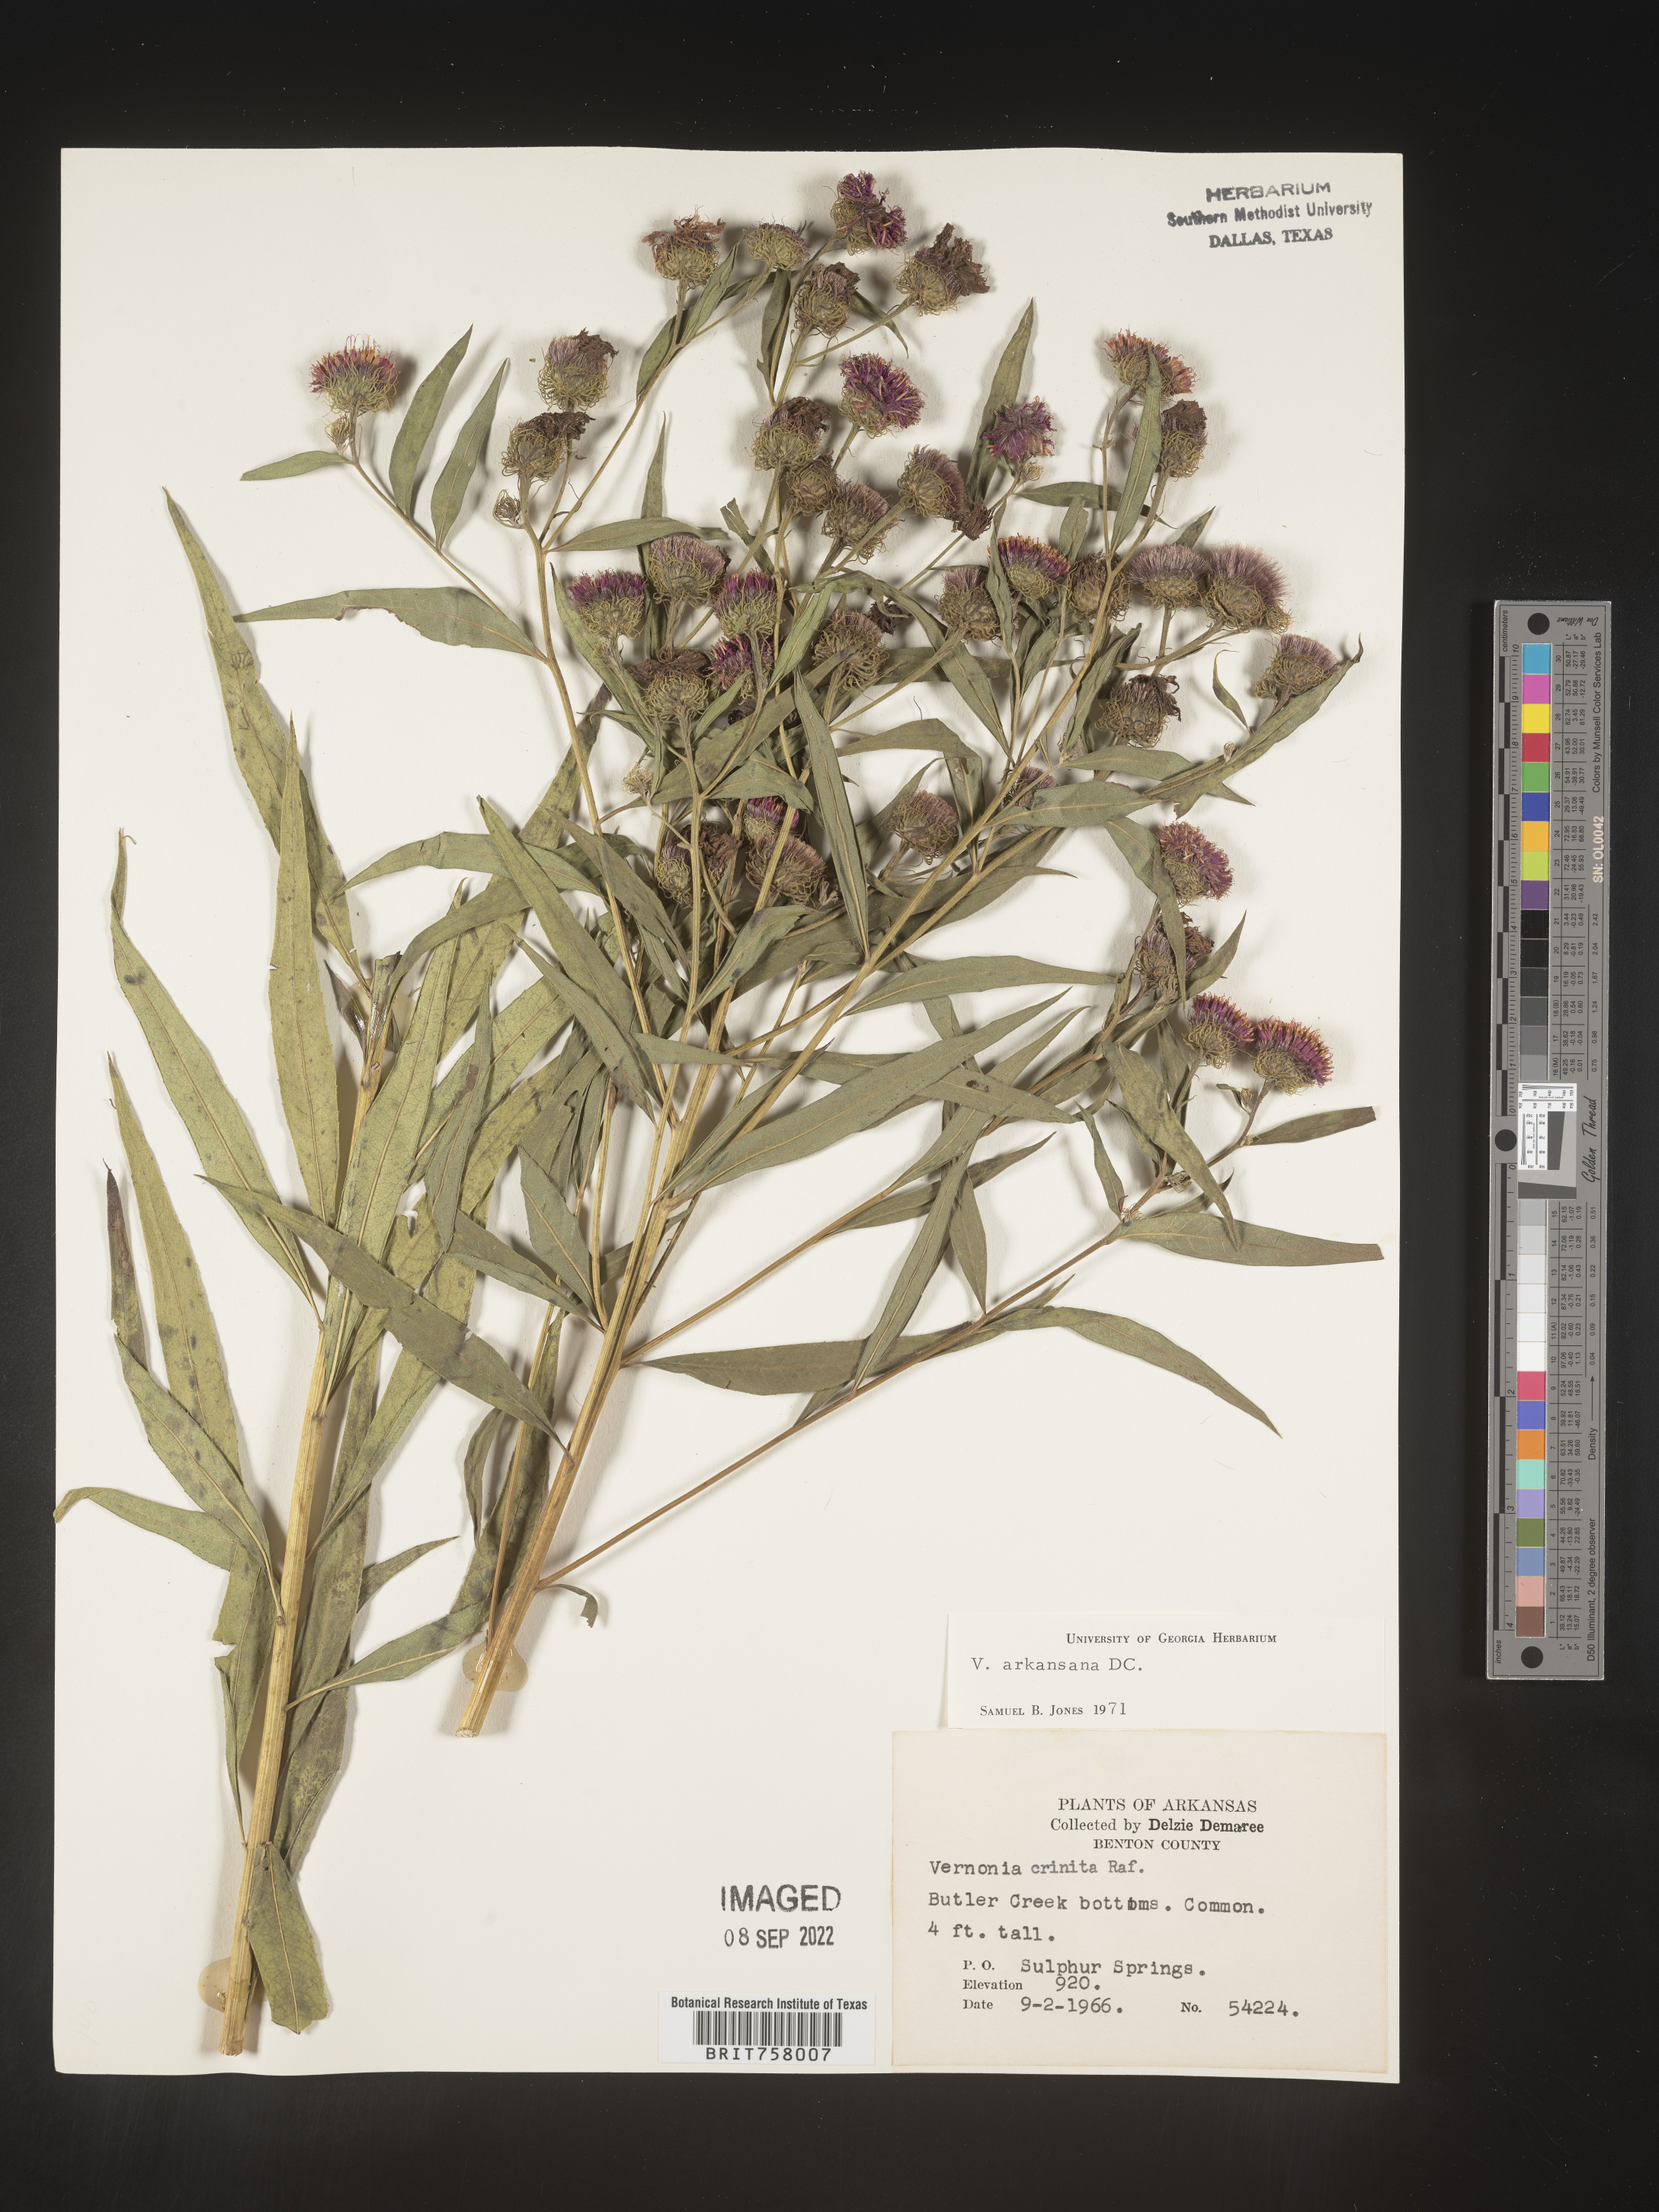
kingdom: Plantae
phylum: Tracheophyta
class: Magnoliopsida
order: Asterales
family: Asteraceae
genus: Vernonia
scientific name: Vernonia arkansana
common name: Ozark ironweed
